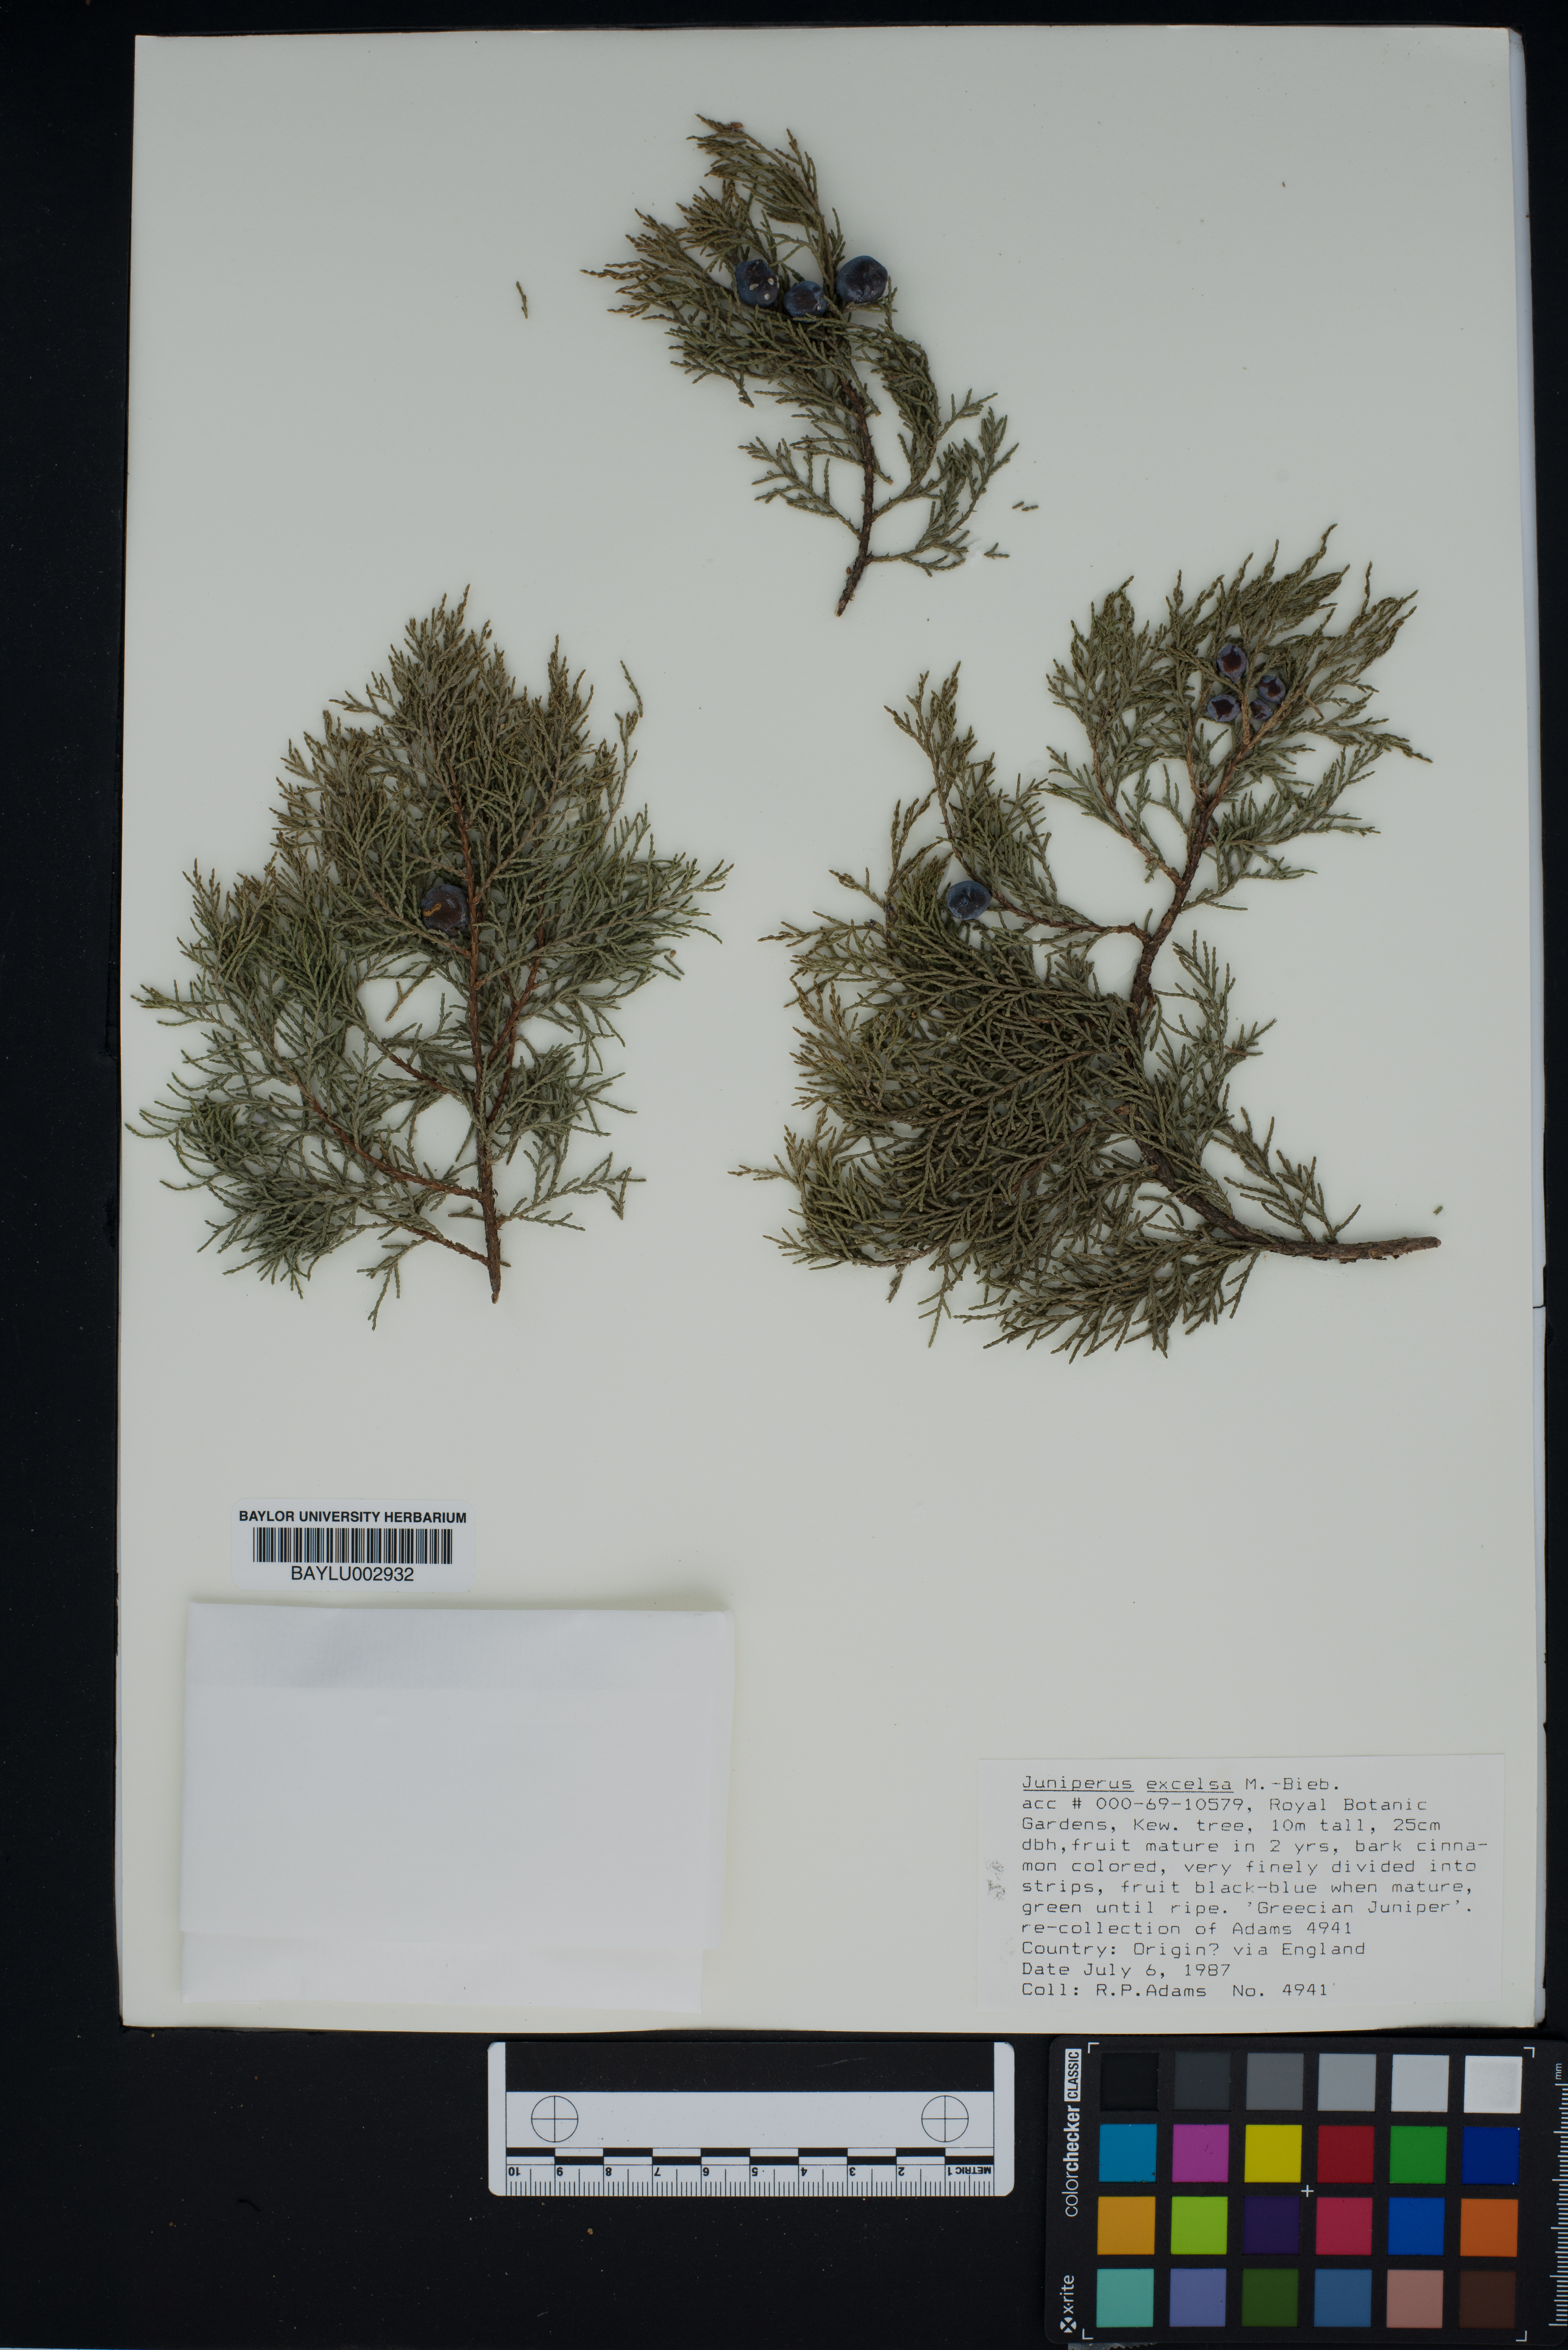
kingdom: Plantae
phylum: Tracheophyta
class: Pinopsida
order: Pinales
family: Cupressaceae
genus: Juniperus
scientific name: Juniperus excelsa
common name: Crimean juniper
